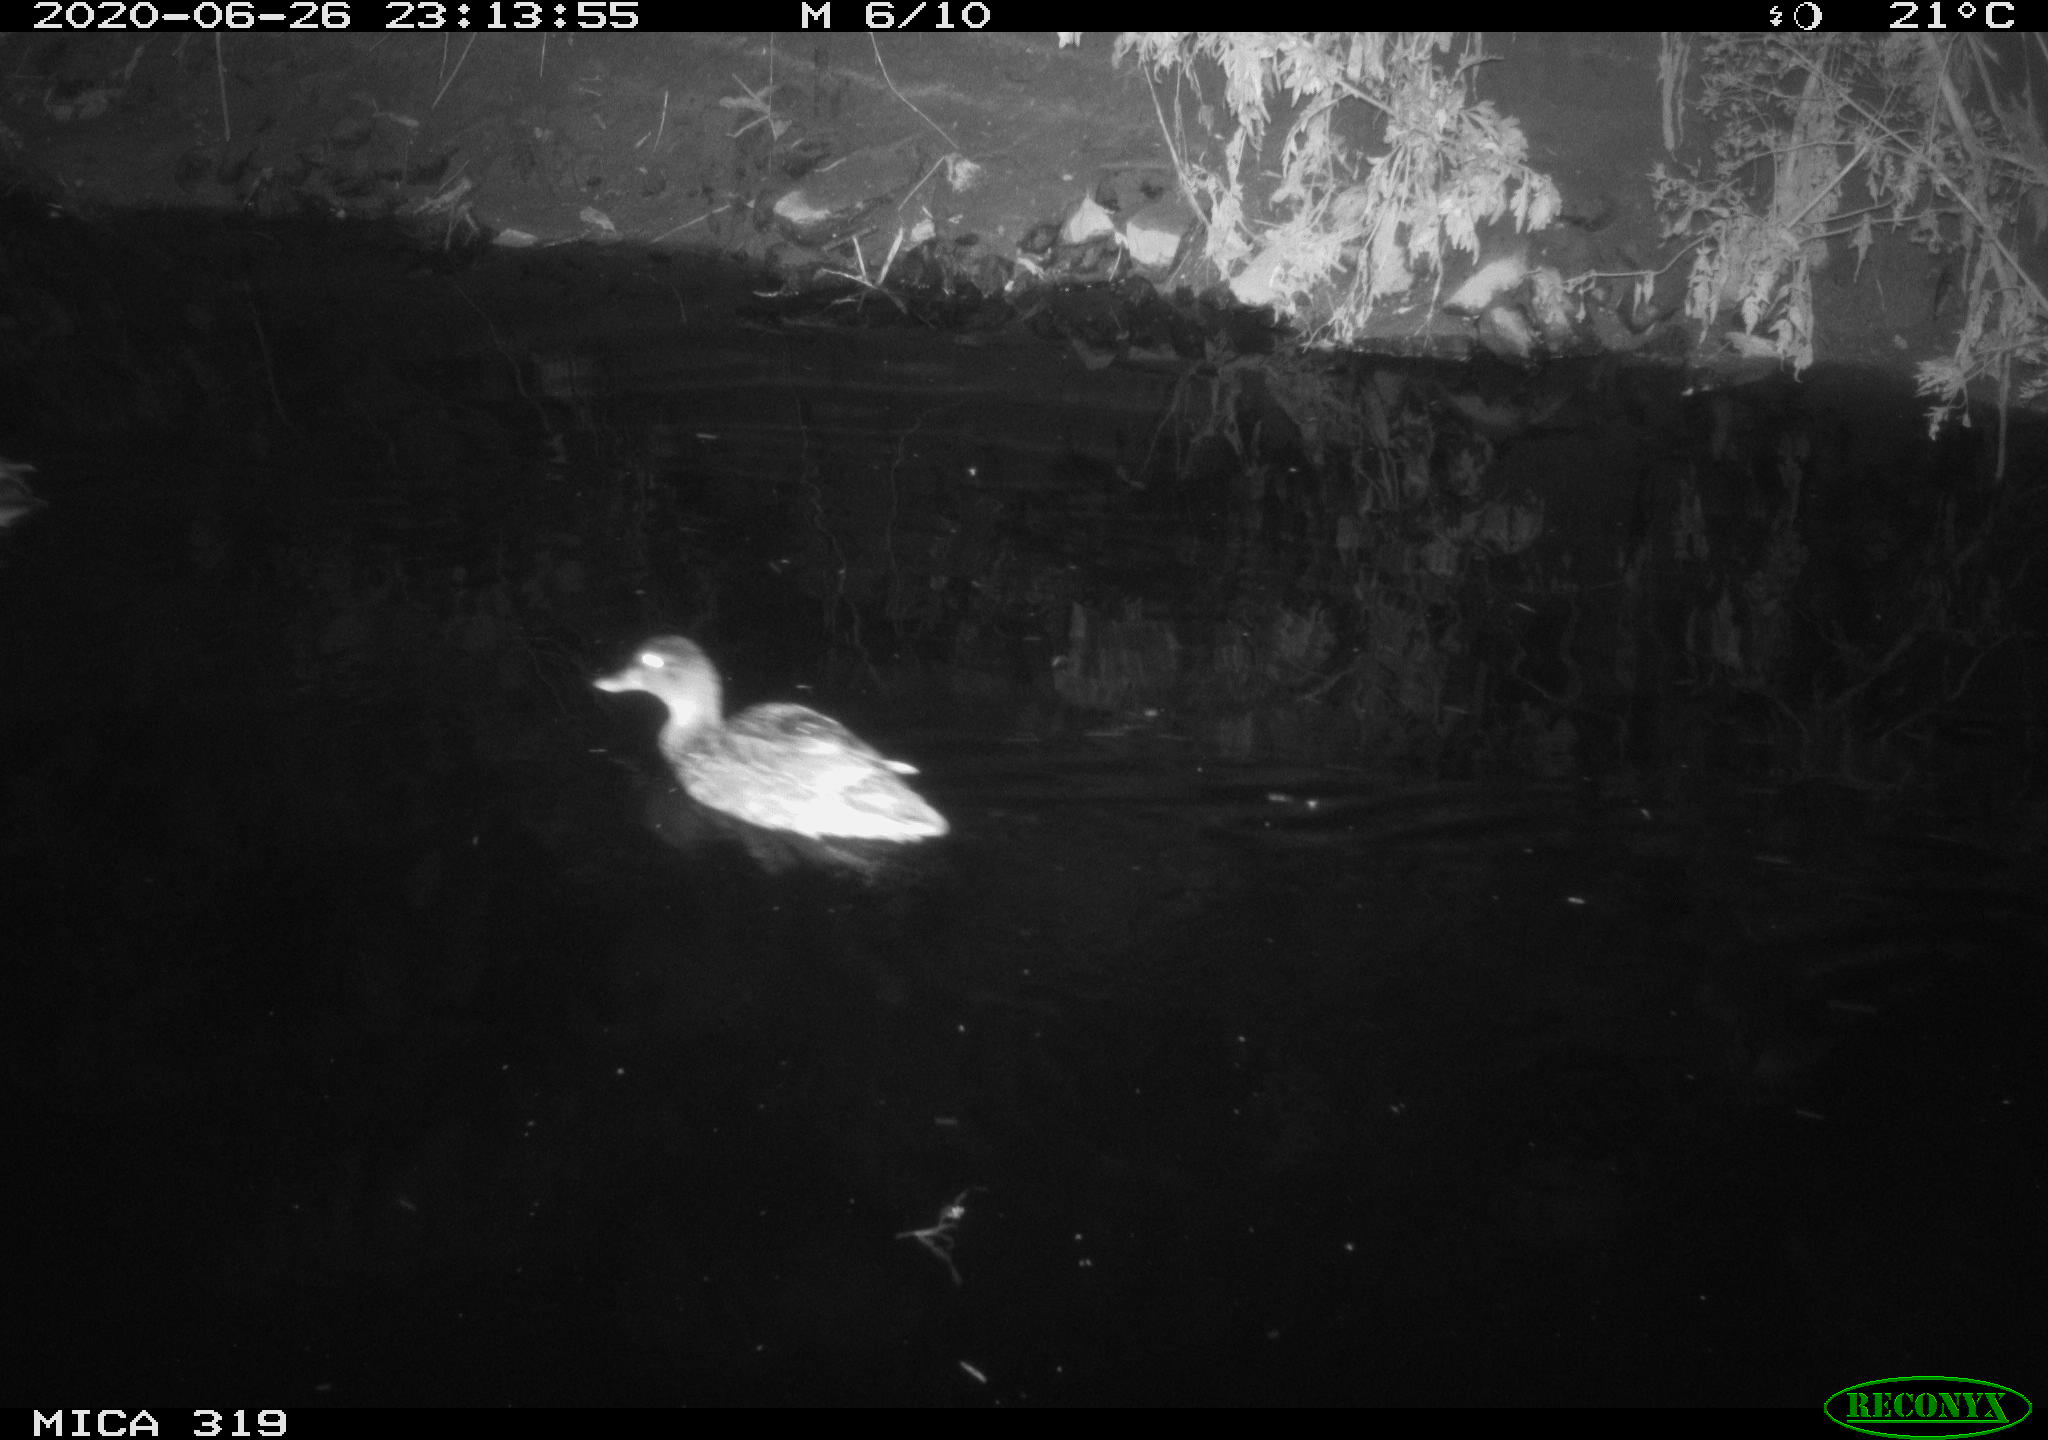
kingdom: Animalia
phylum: Chordata
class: Aves
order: Anseriformes
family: Anatidae
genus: Anas
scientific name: Anas platyrhynchos
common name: Mallard
